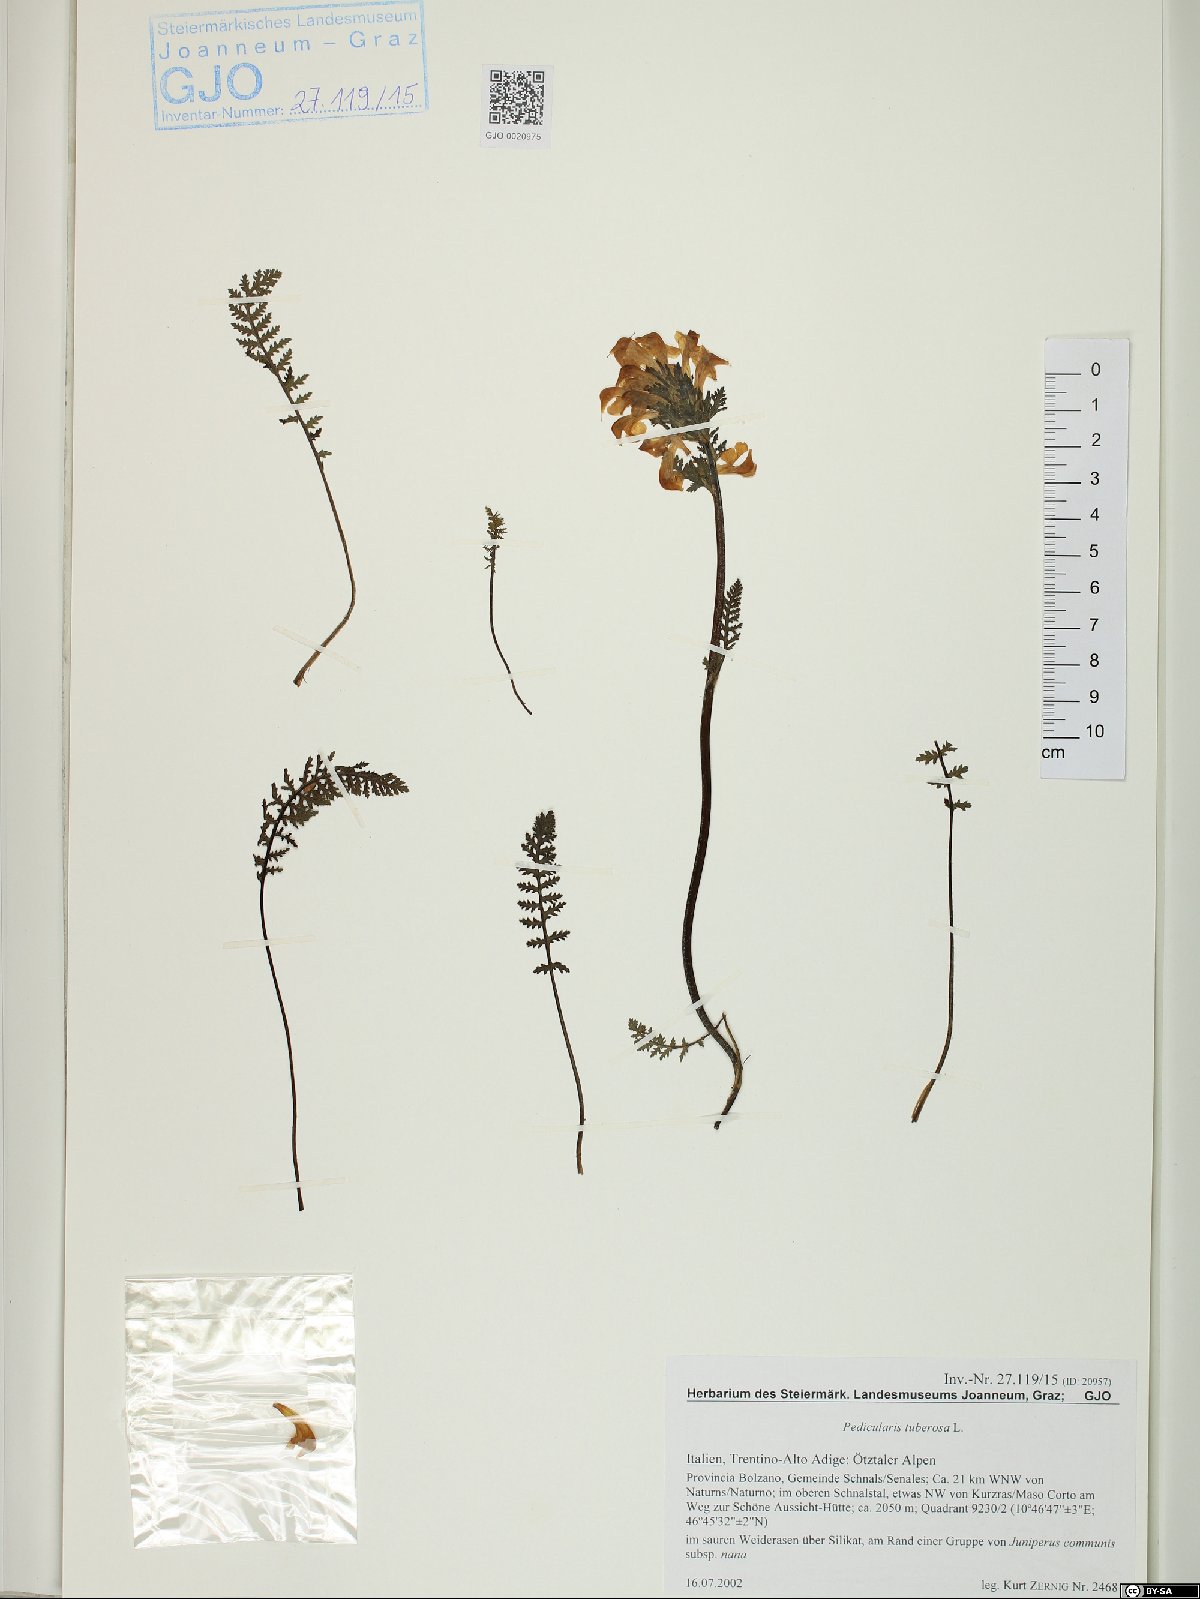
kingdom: Plantae
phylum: Tracheophyta
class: Magnoliopsida
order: Lamiales
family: Orobanchaceae
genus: Pedicularis
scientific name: Pedicularis asplenifolia
